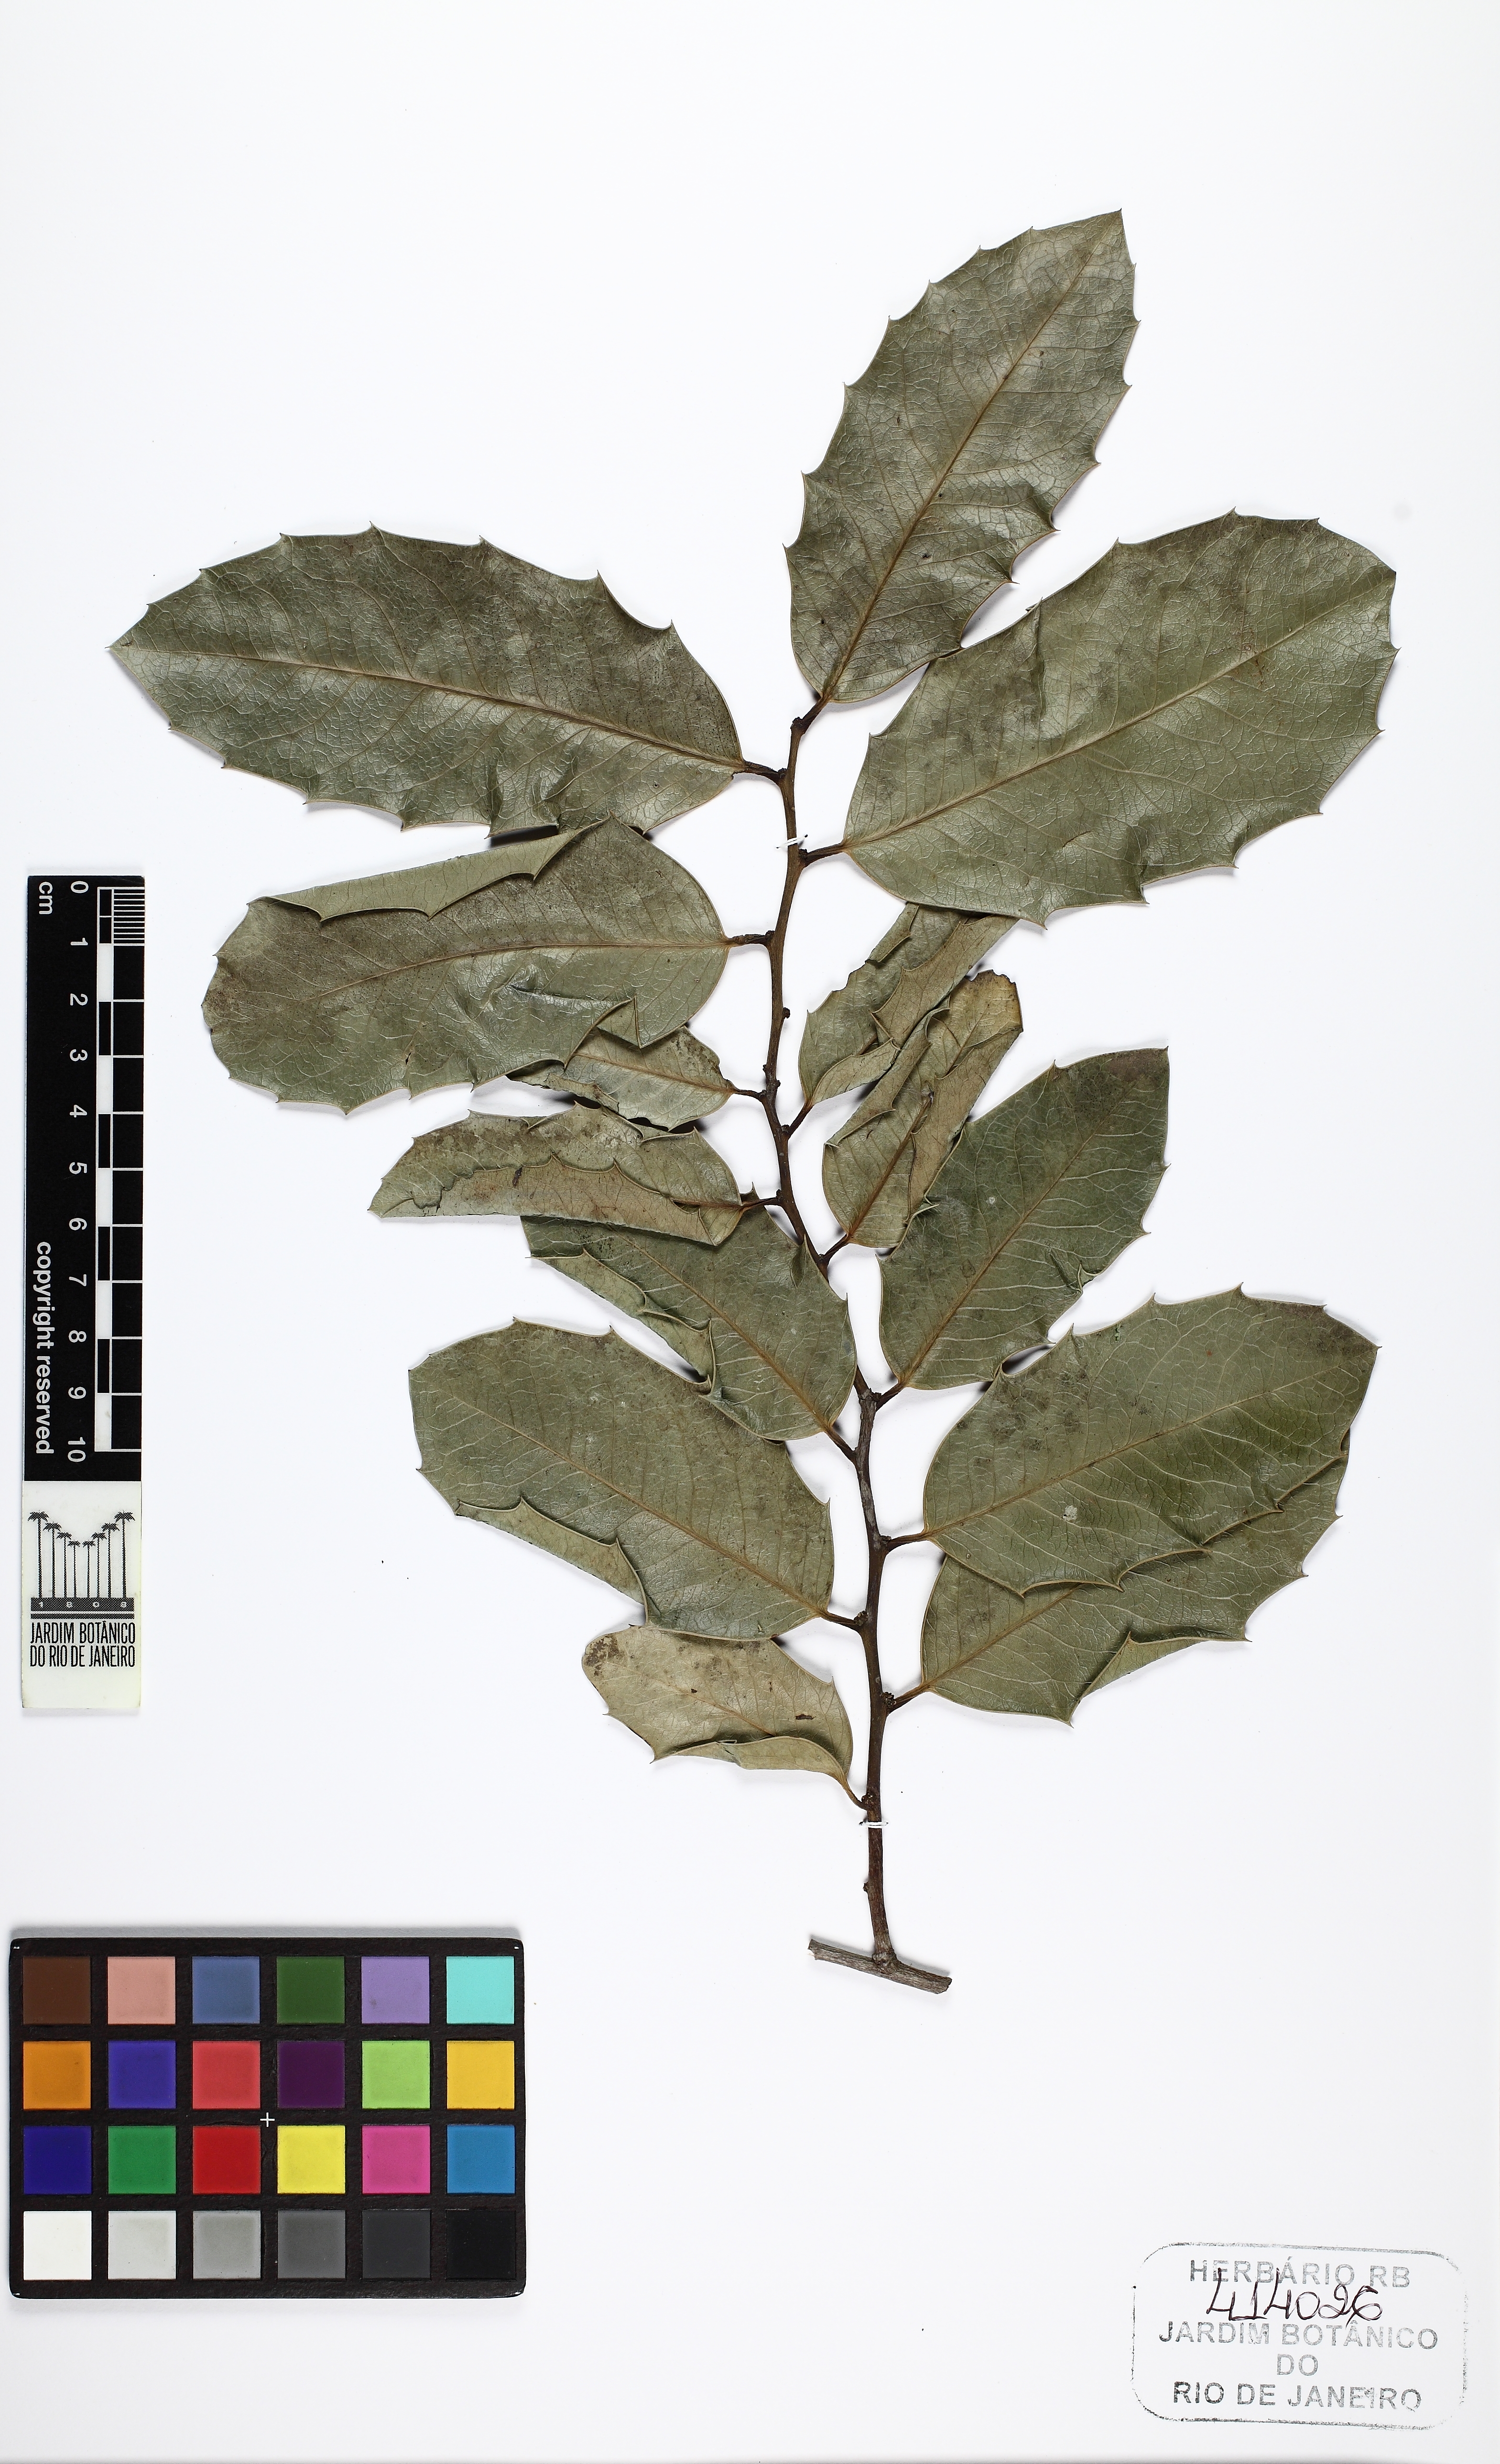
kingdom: Plantae
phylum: Tracheophyta
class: Magnoliopsida
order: Celastrales
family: Celastraceae
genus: Monteverdia
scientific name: Monteverdia aquifolium
